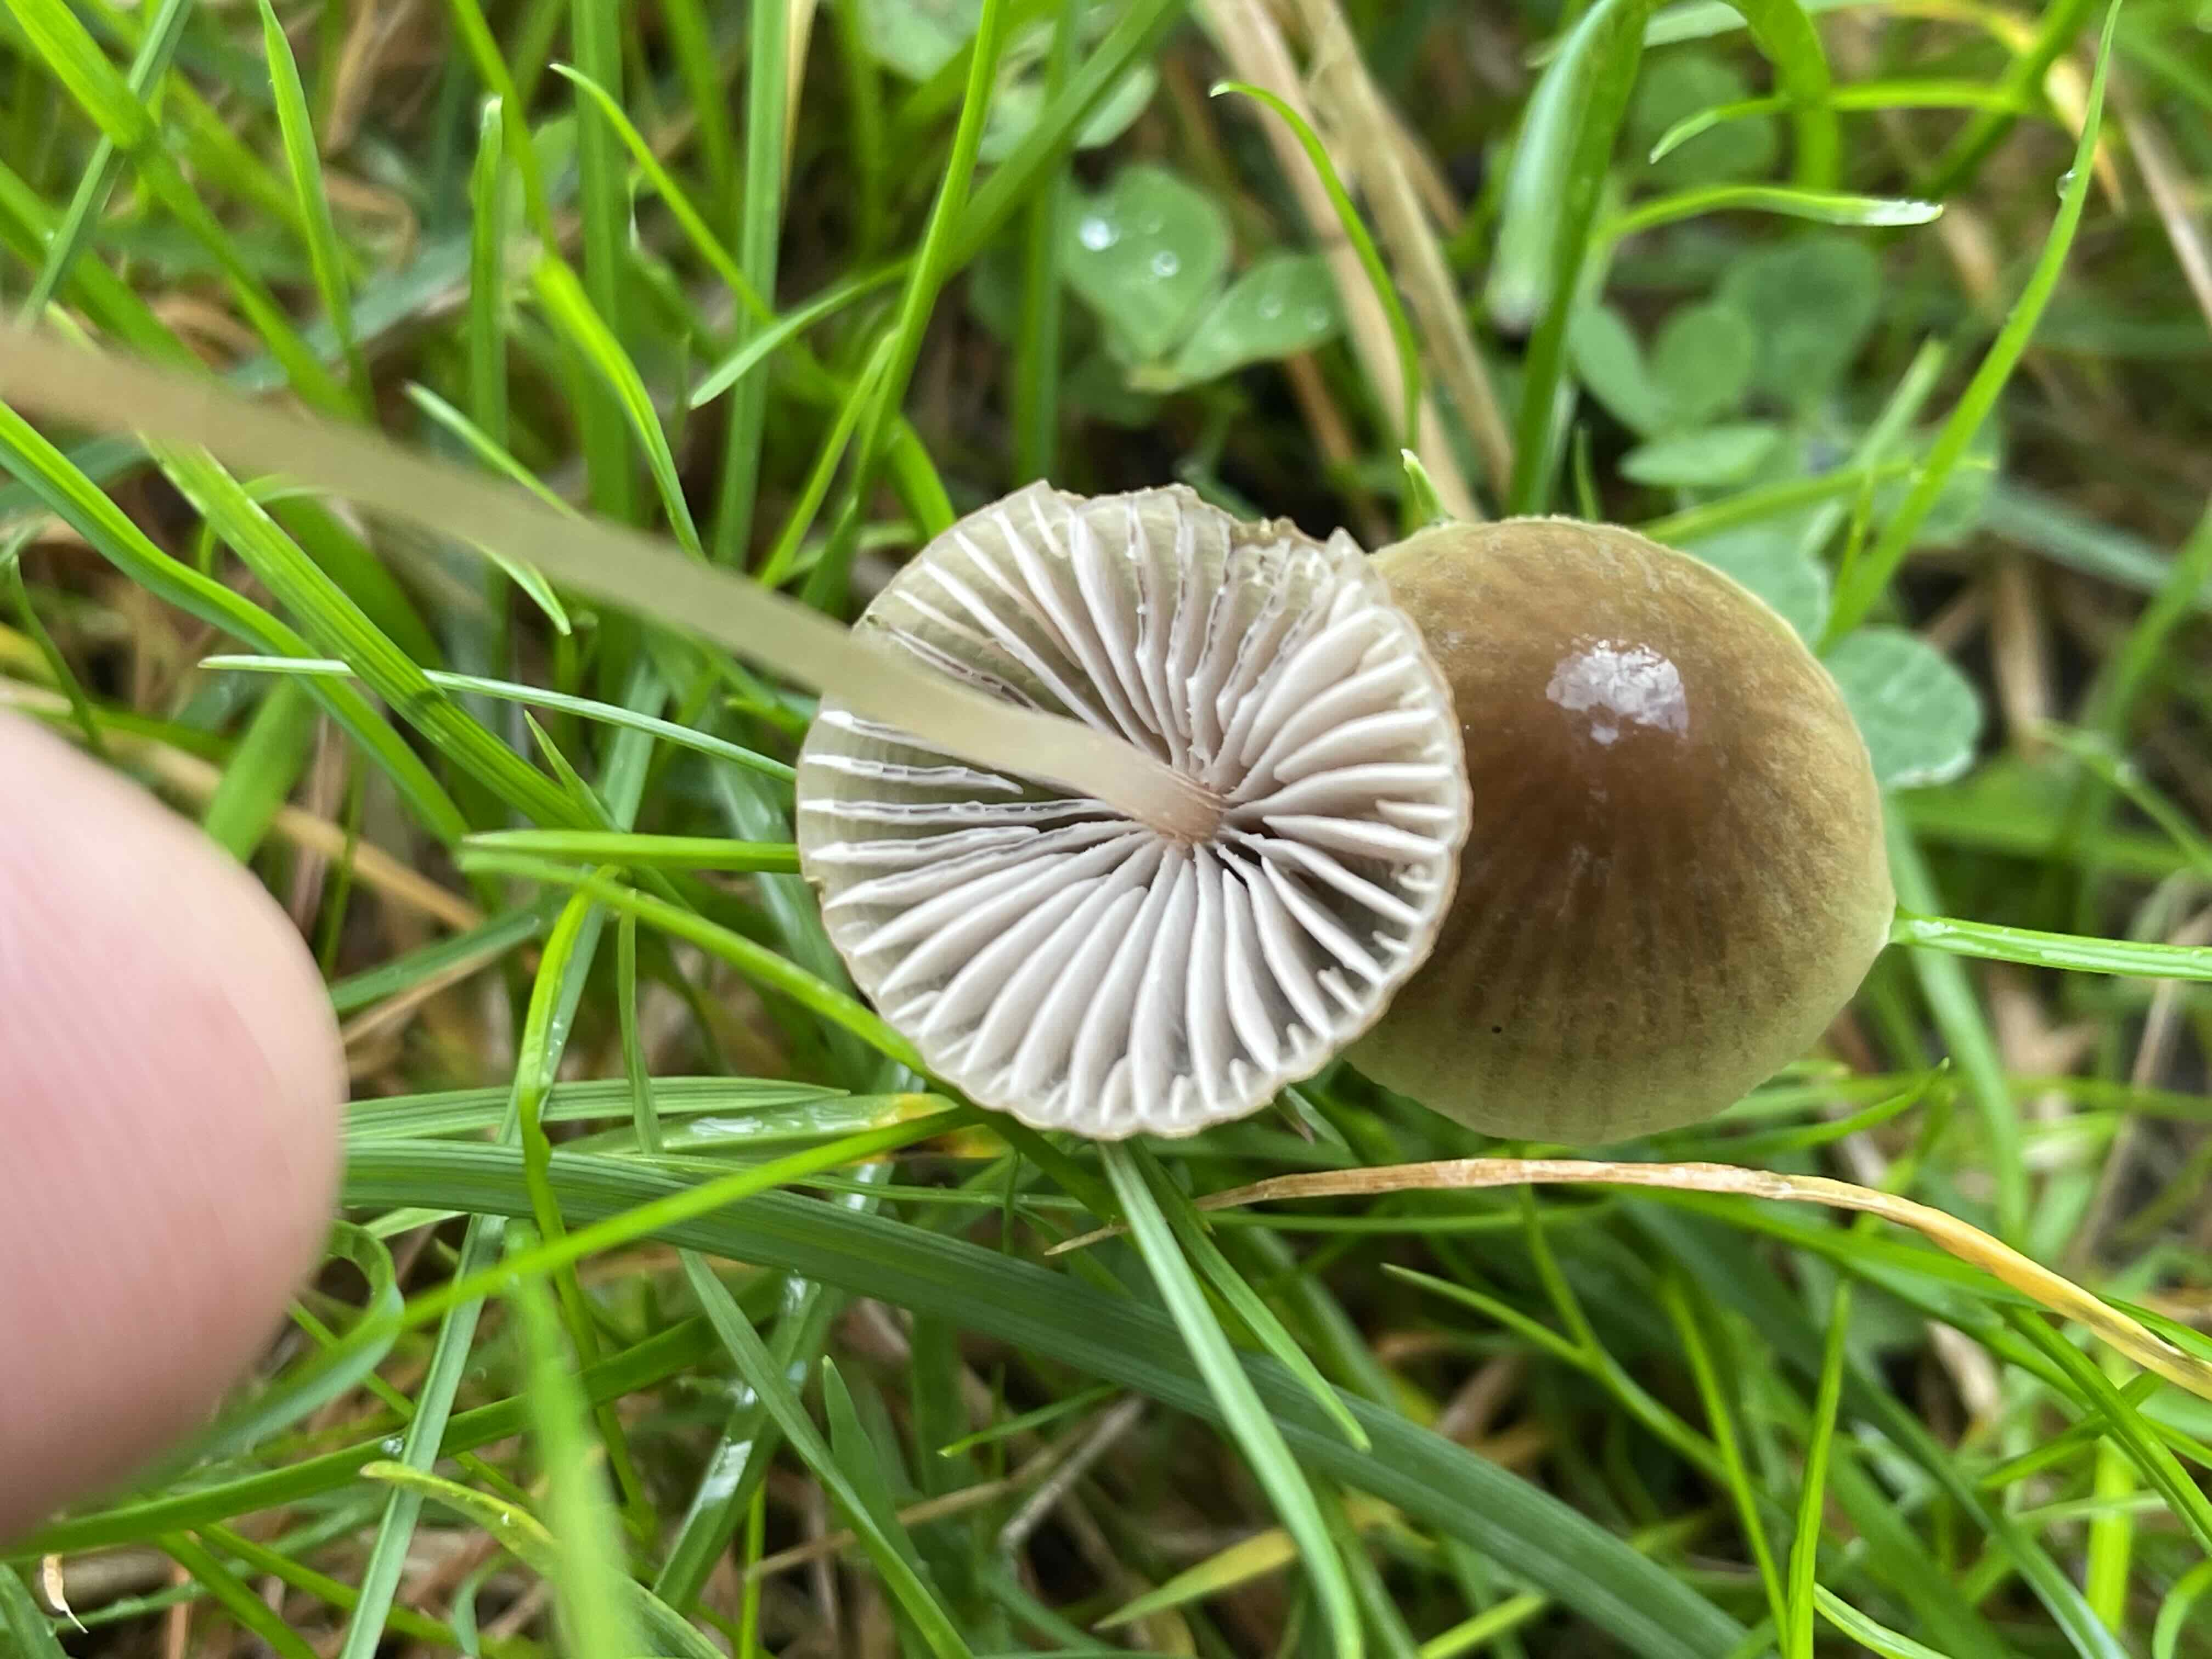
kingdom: Fungi
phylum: Basidiomycota
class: Agaricomycetes
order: Agaricales
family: Mycenaceae
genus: Mycena
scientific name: Mycena
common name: huesvamp
